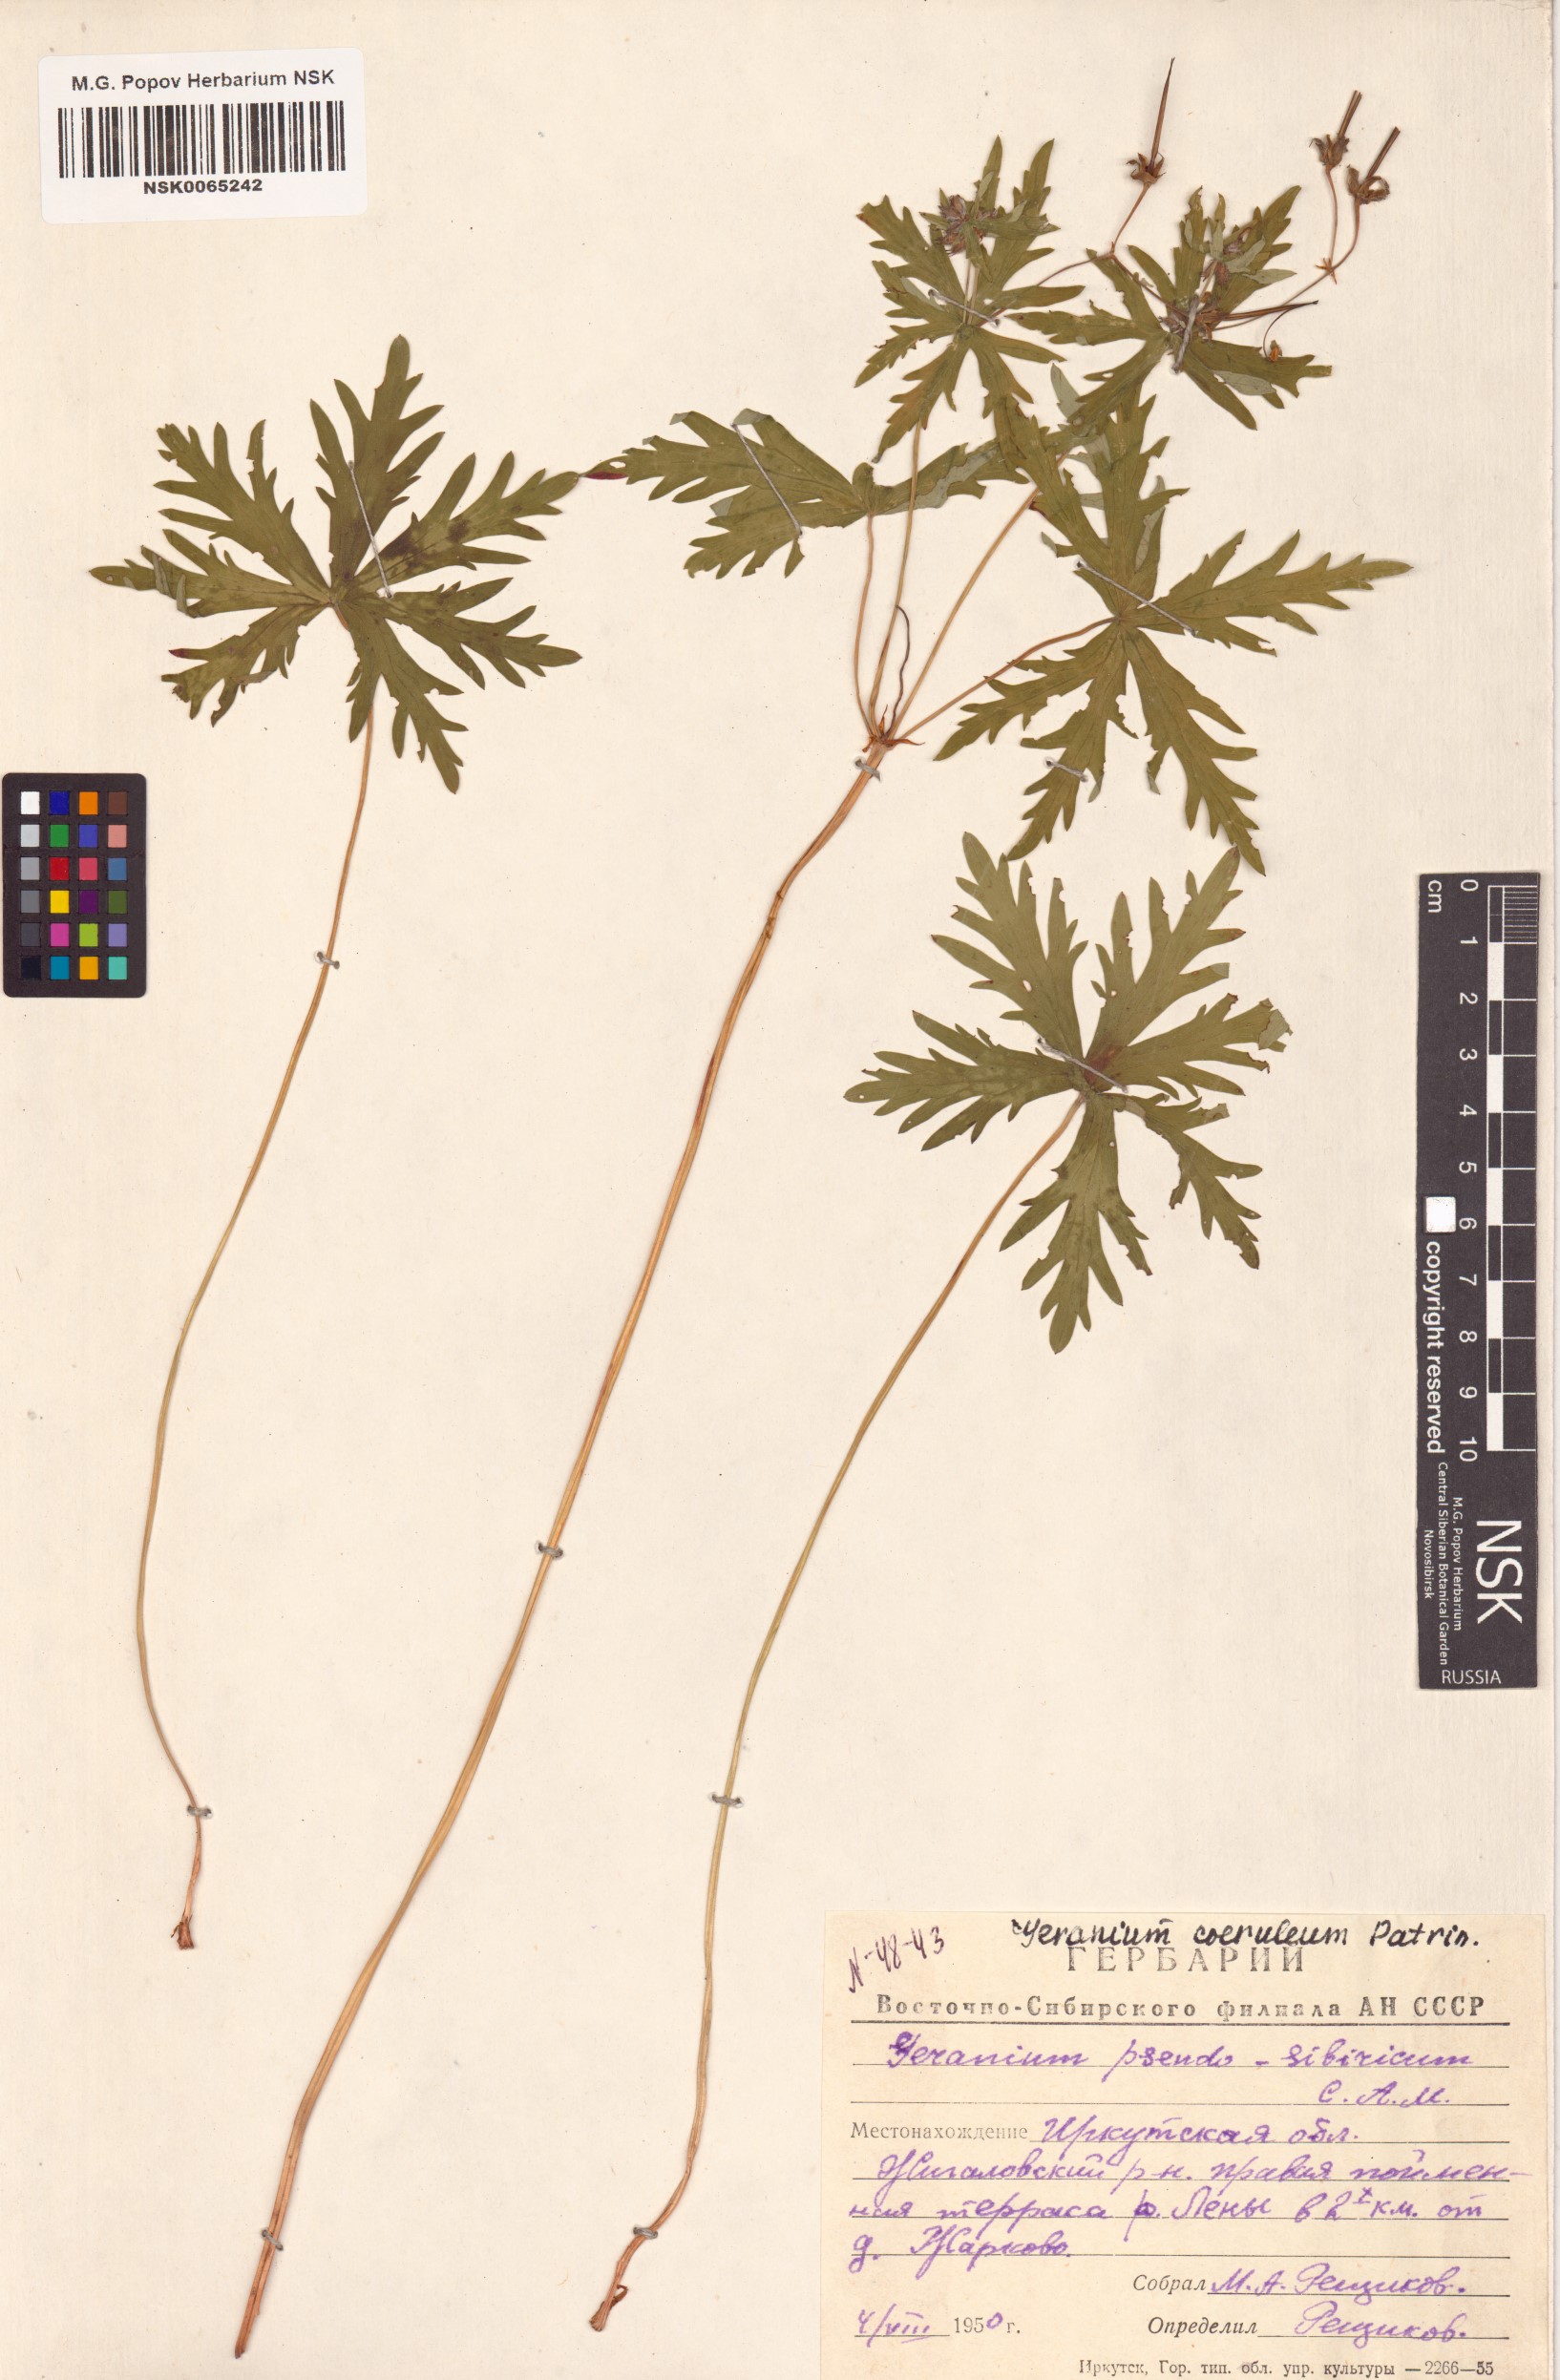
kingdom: Plantae
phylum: Tracheophyta
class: Magnoliopsida
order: Geraniales
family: Geraniaceae
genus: Geranium
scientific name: Geranium pseudosibiricum
